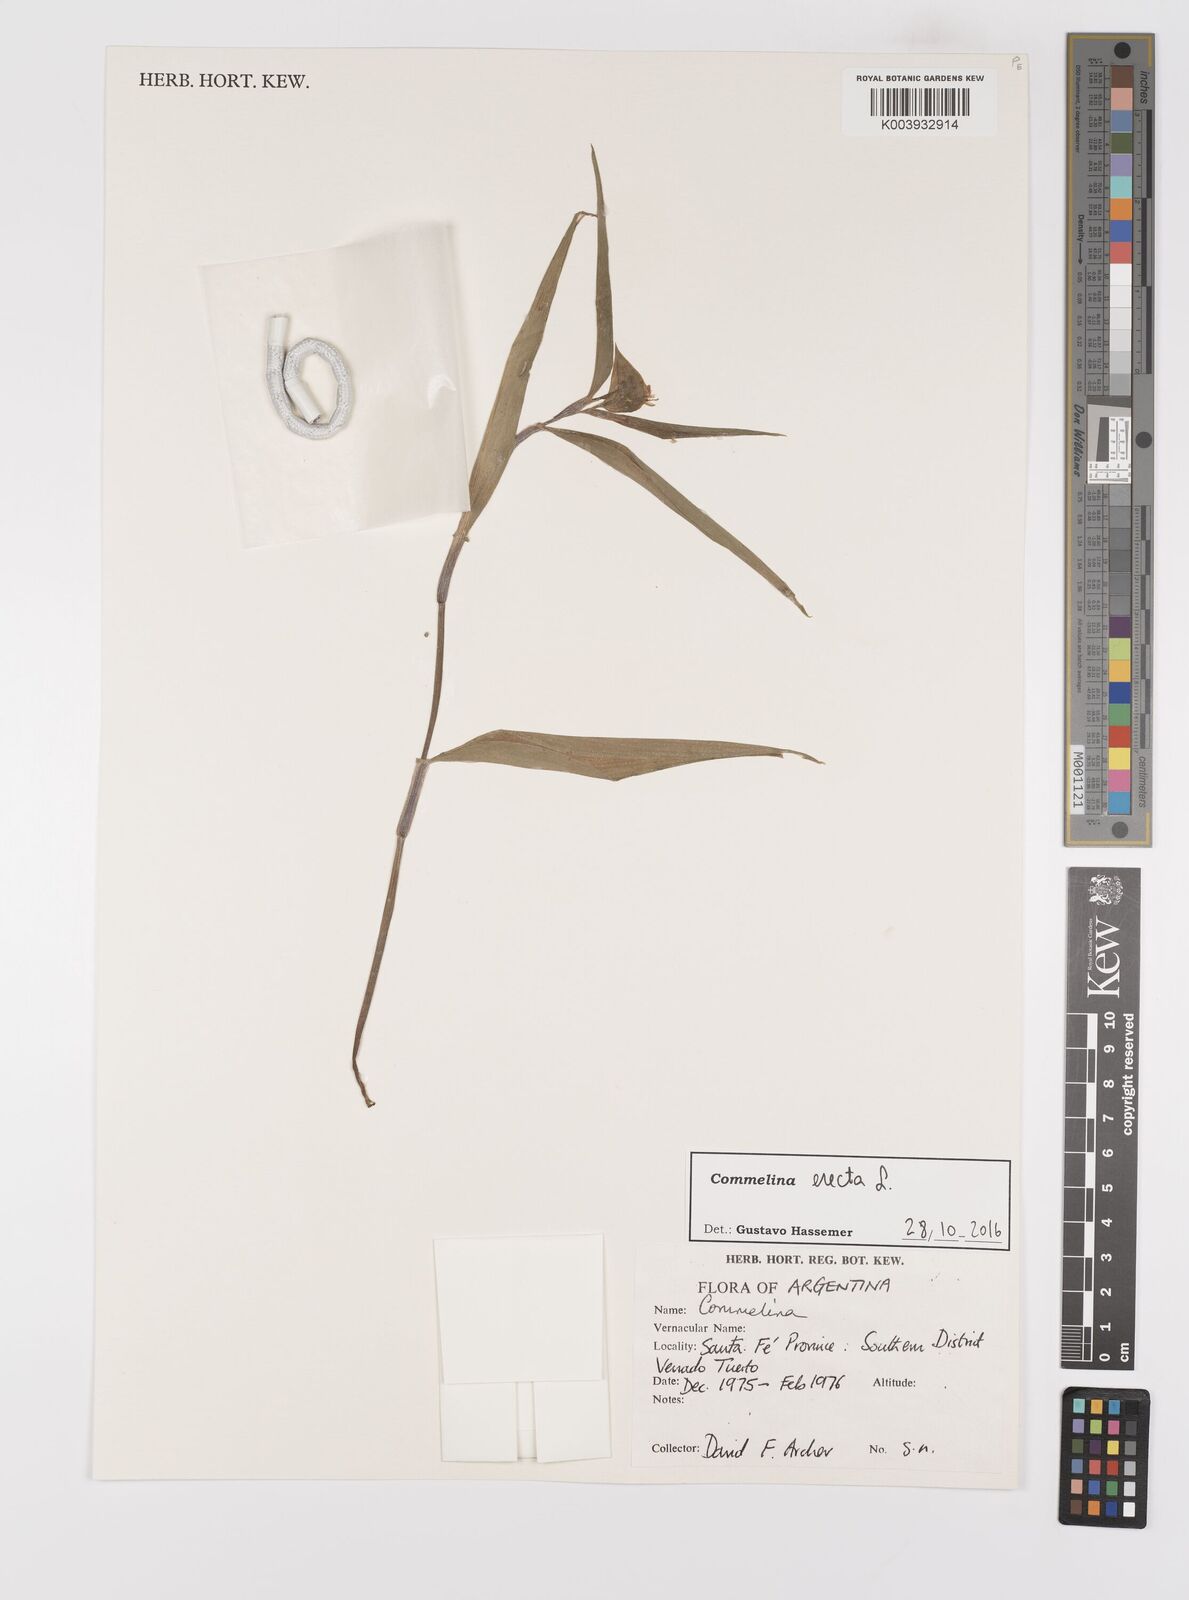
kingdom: Plantae
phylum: Tracheophyta
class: Liliopsida
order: Commelinales
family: Commelinaceae
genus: Commelina
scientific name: Commelina erecta
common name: Blousel blommetjie
